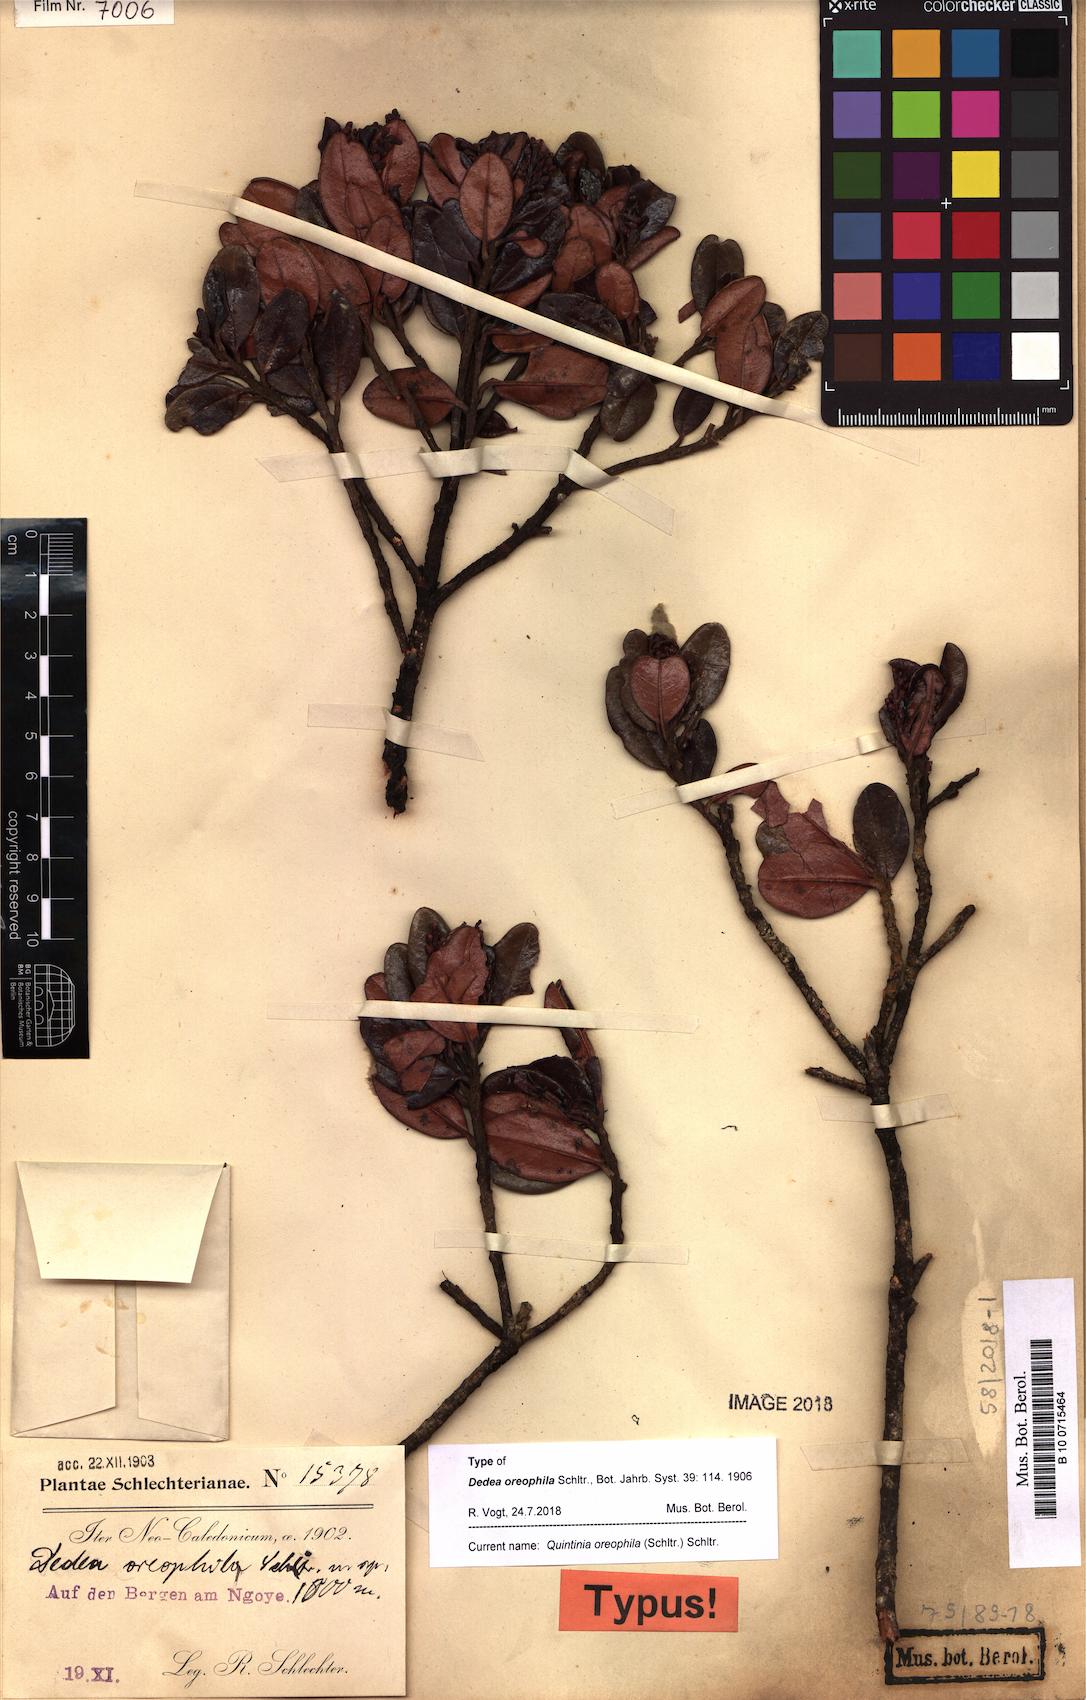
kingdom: Plantae
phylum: Tracheophyta
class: Magnoliopsida
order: Paracryphiales
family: Paracryphiaceae
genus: Quintinia
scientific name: Quintinia oreophila
